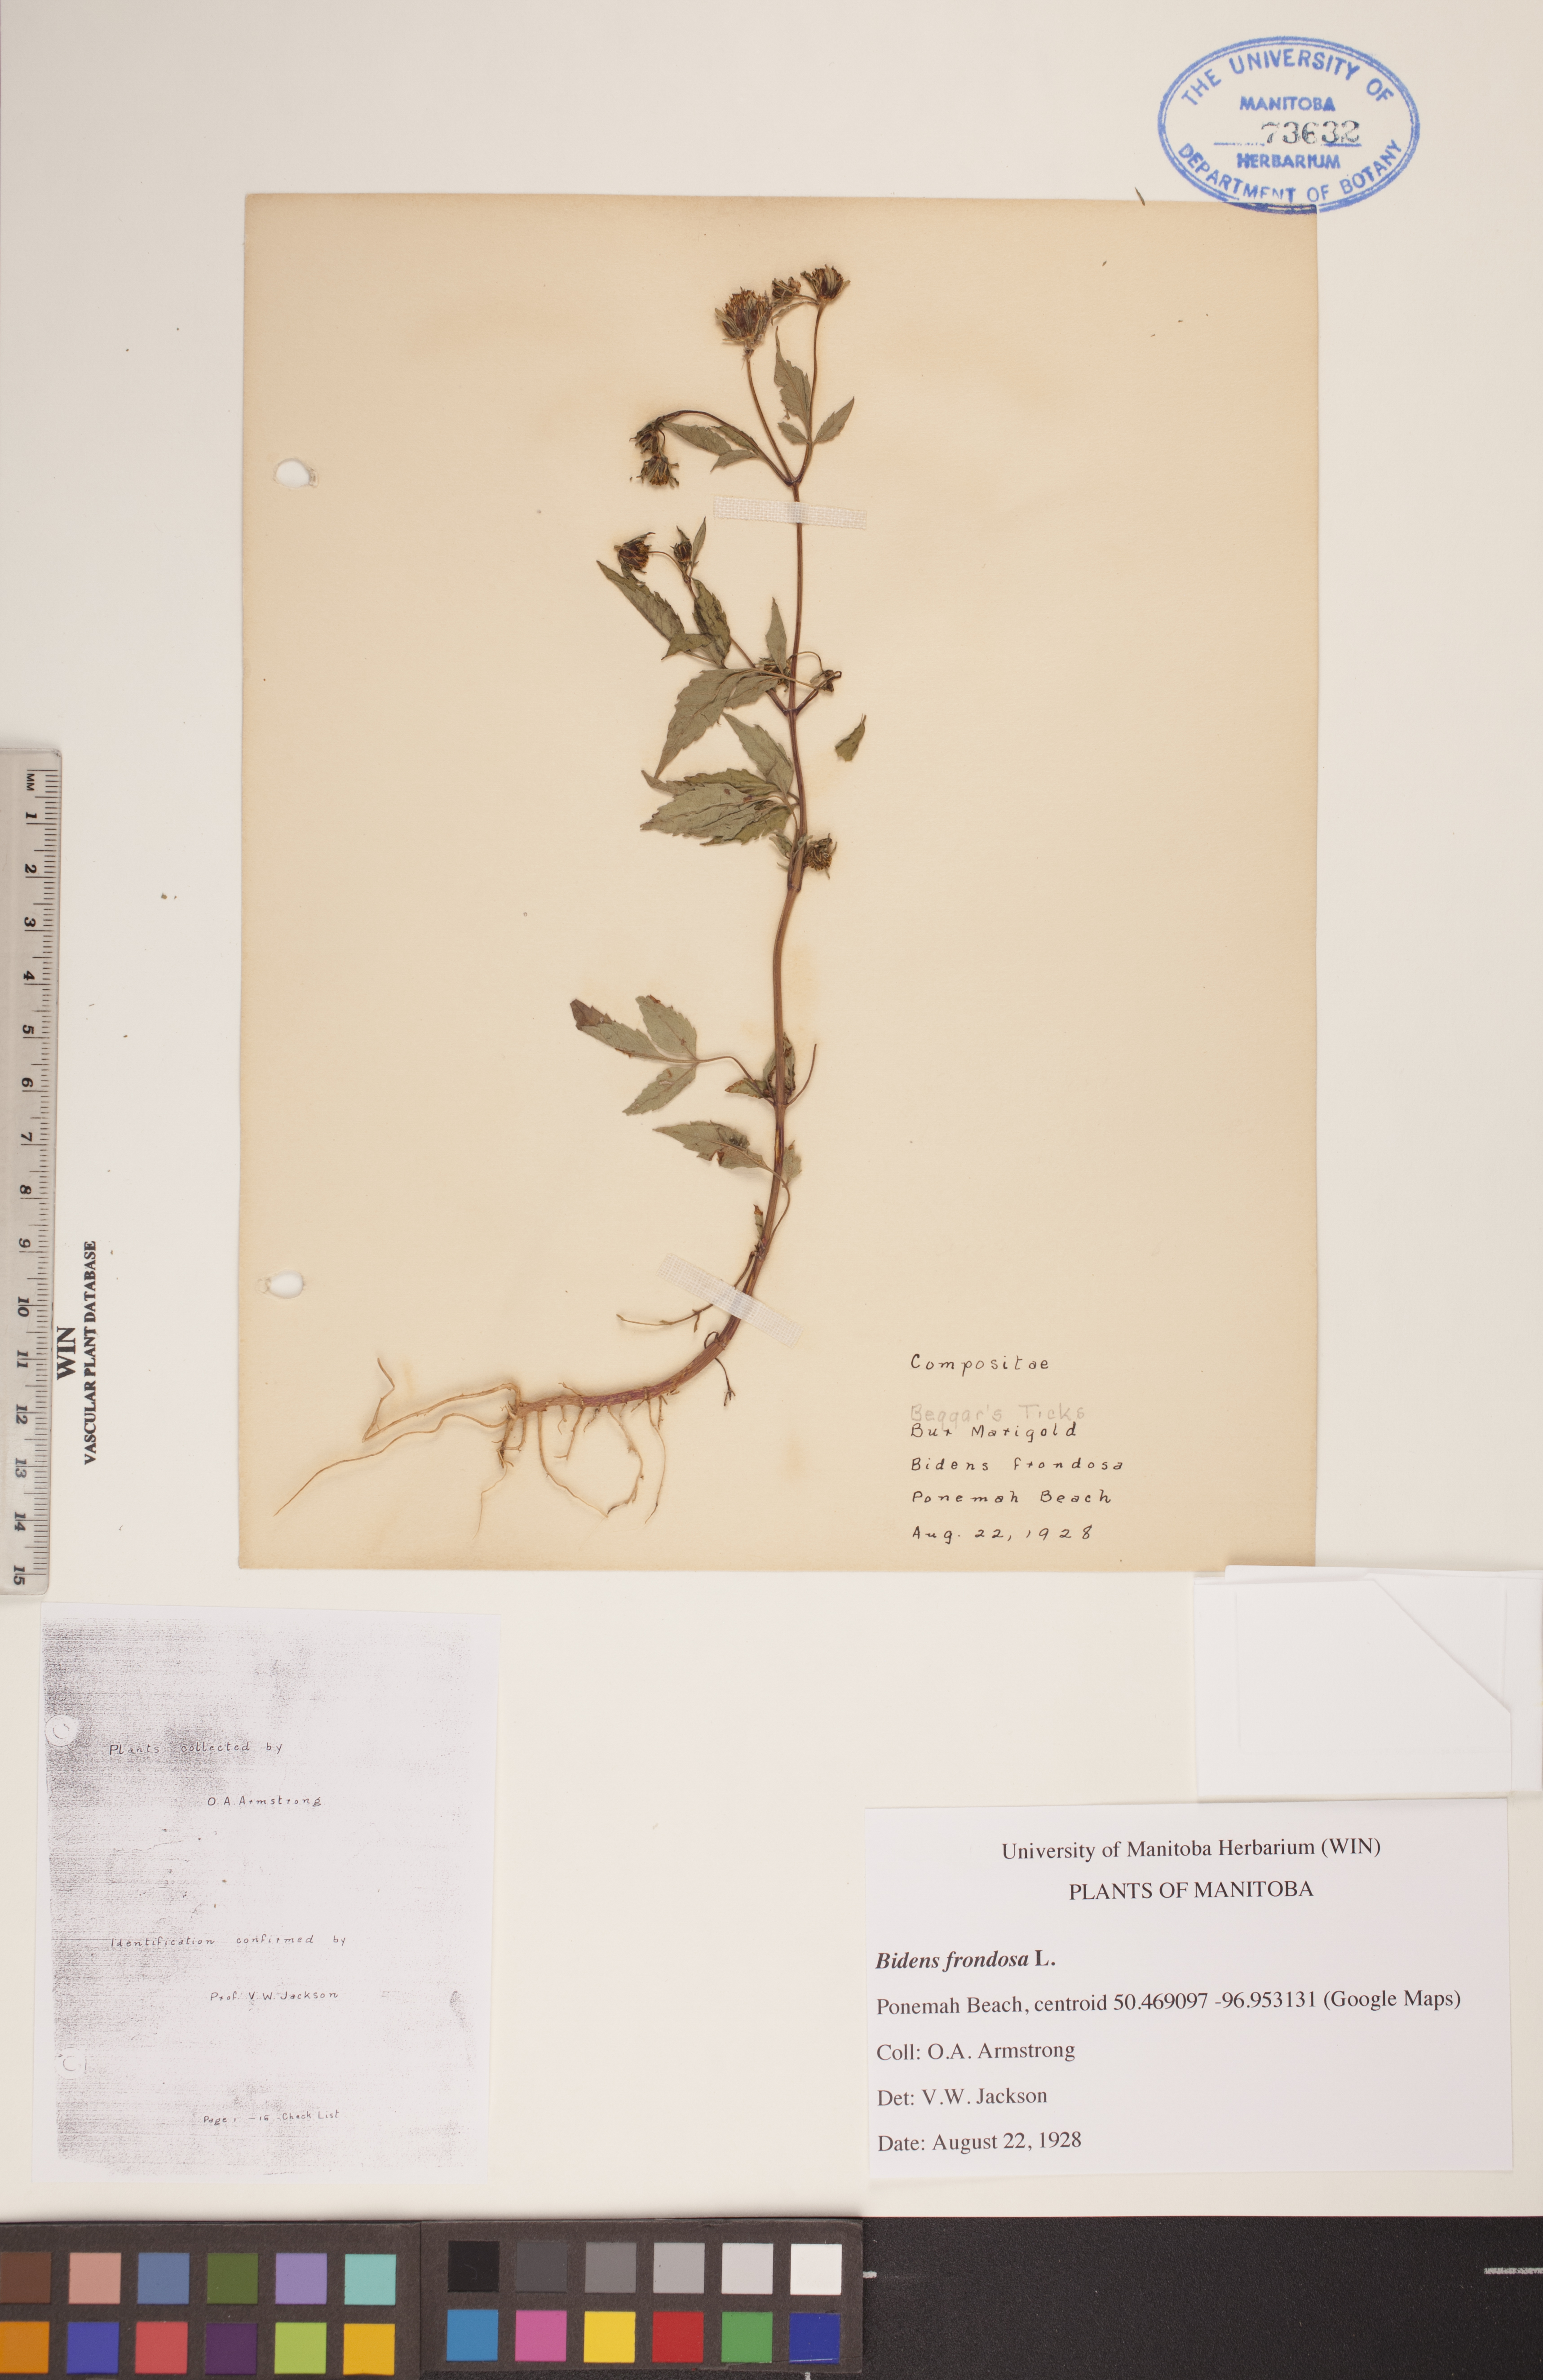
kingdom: Plantae
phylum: Tracheophyta
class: Magnoliopsida
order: Asterales
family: Asteraceae
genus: Bidens
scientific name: Bidens frondosa
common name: Beggarticks
